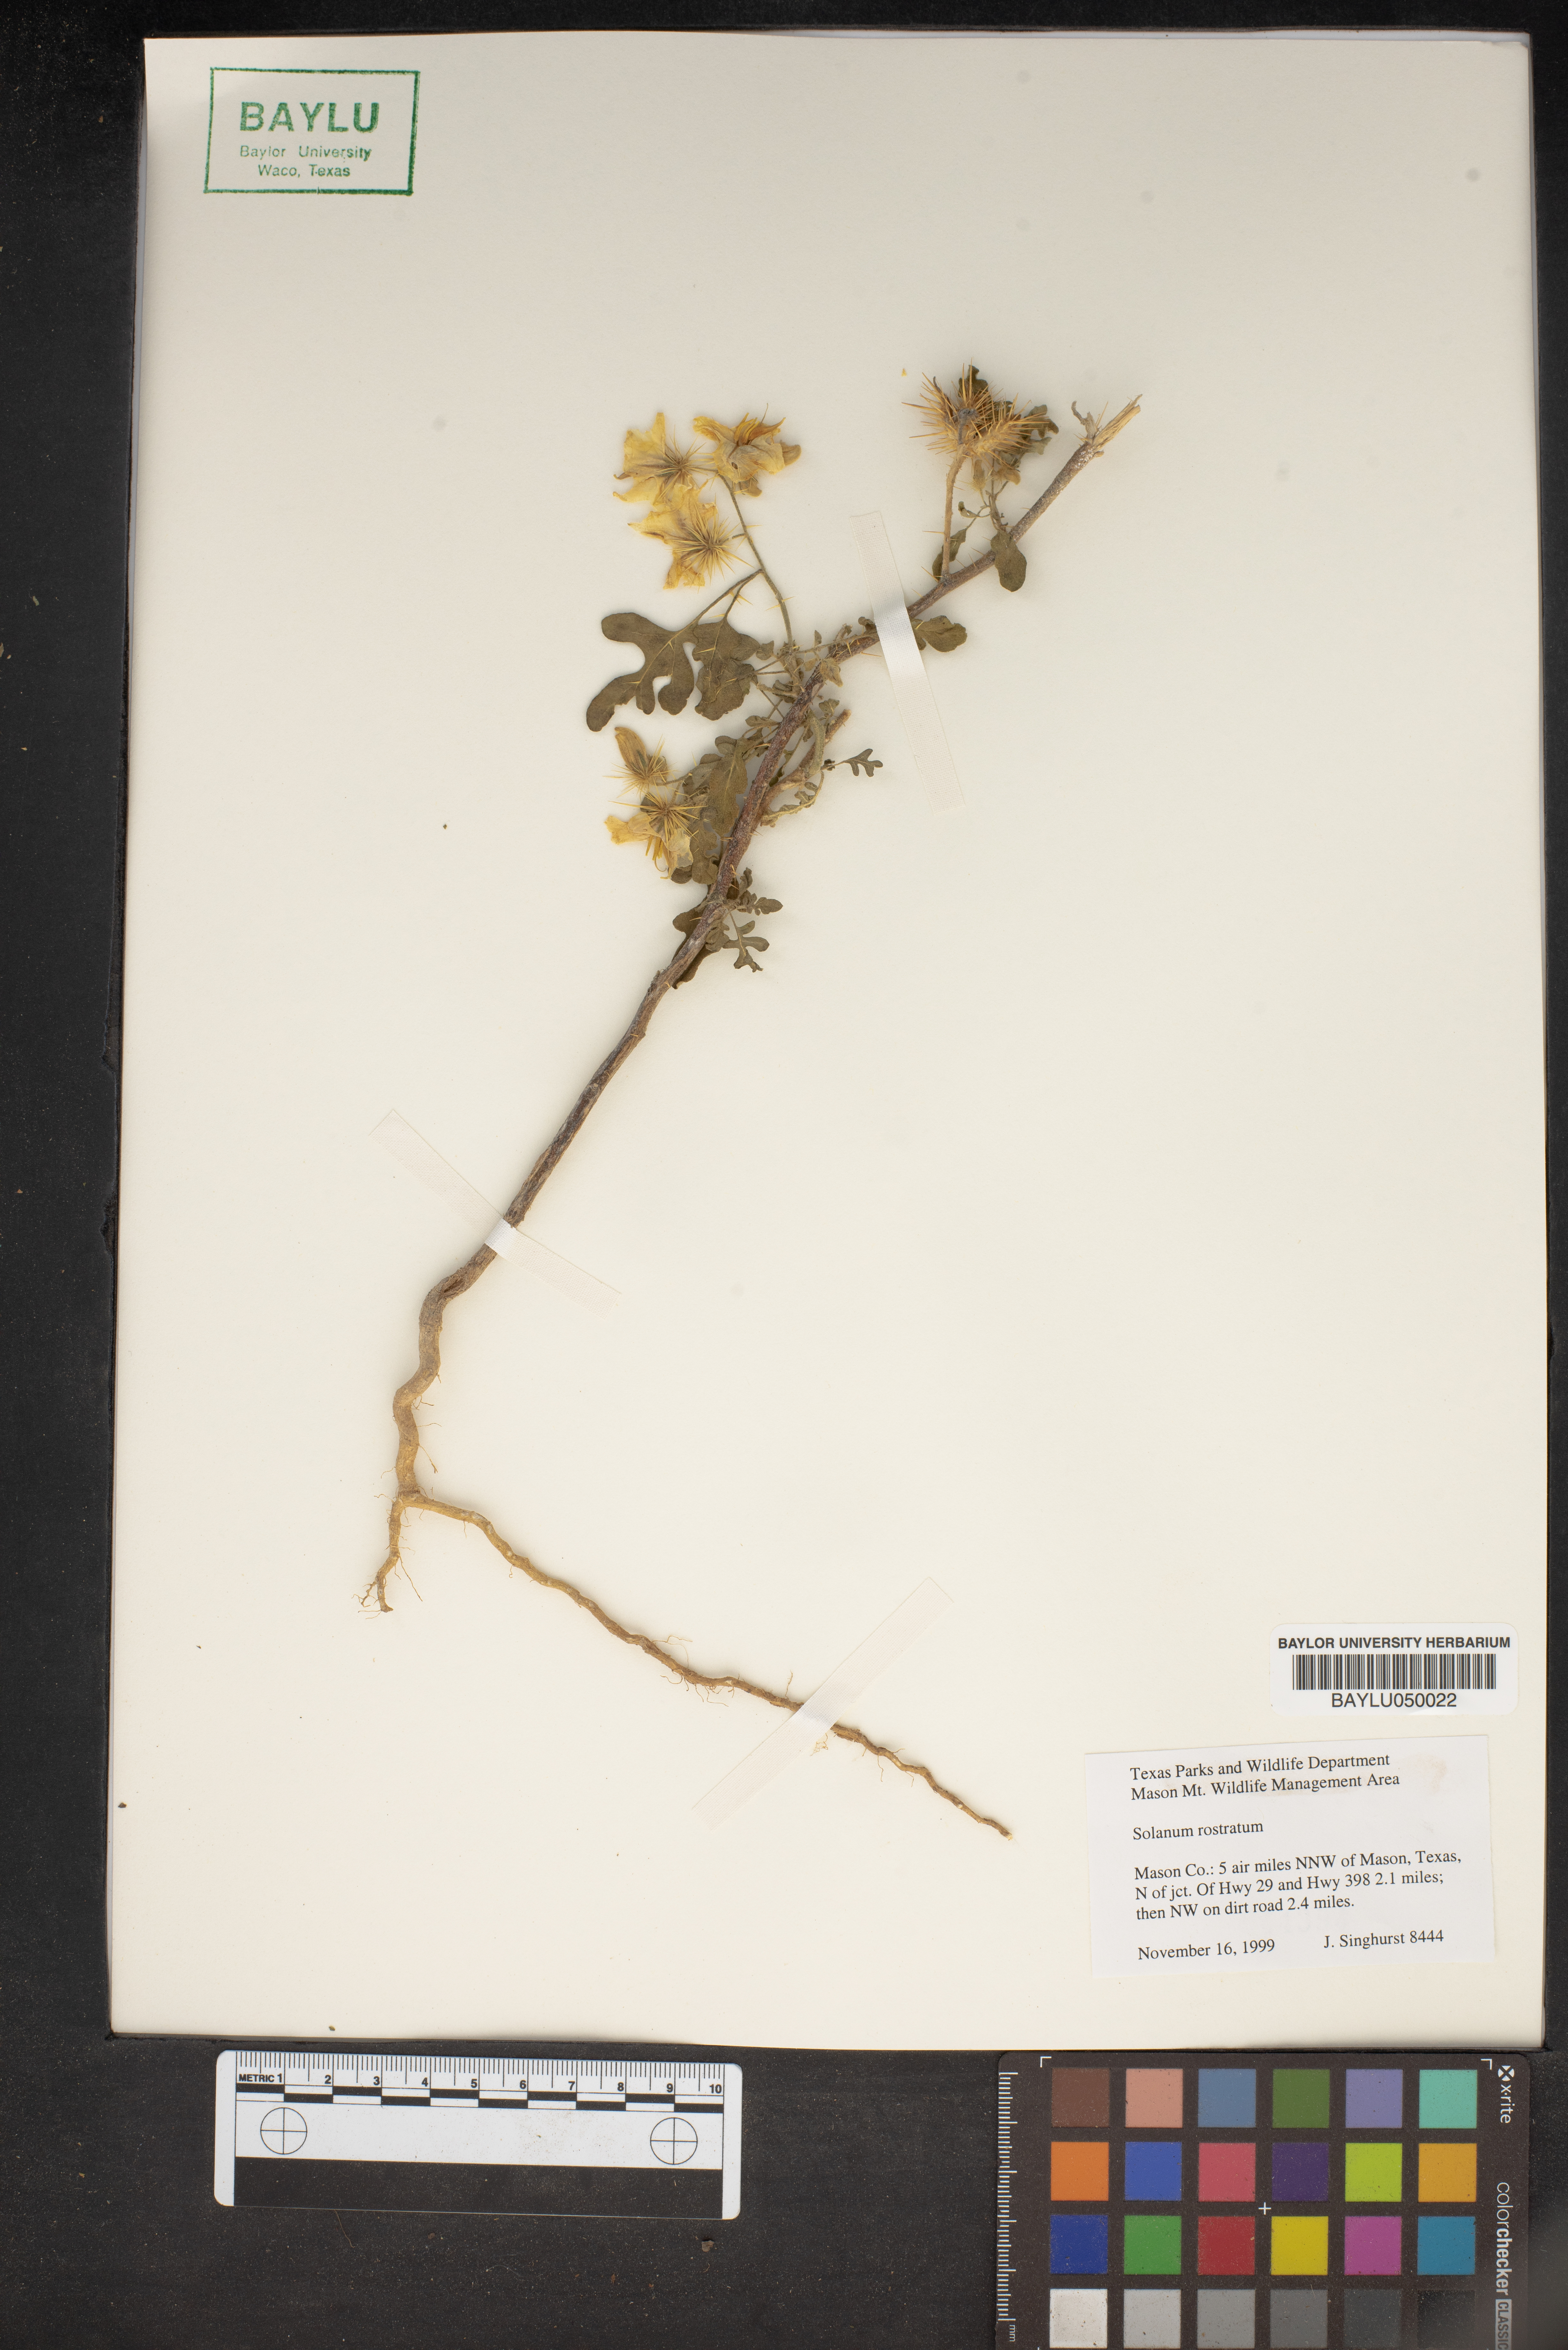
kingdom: Plantae
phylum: Tracheophyta
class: Magnoliopsida
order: Solanales
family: Solanaceae
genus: Solanum
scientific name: Solanum angustifolium
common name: Buffalobur nightshade
